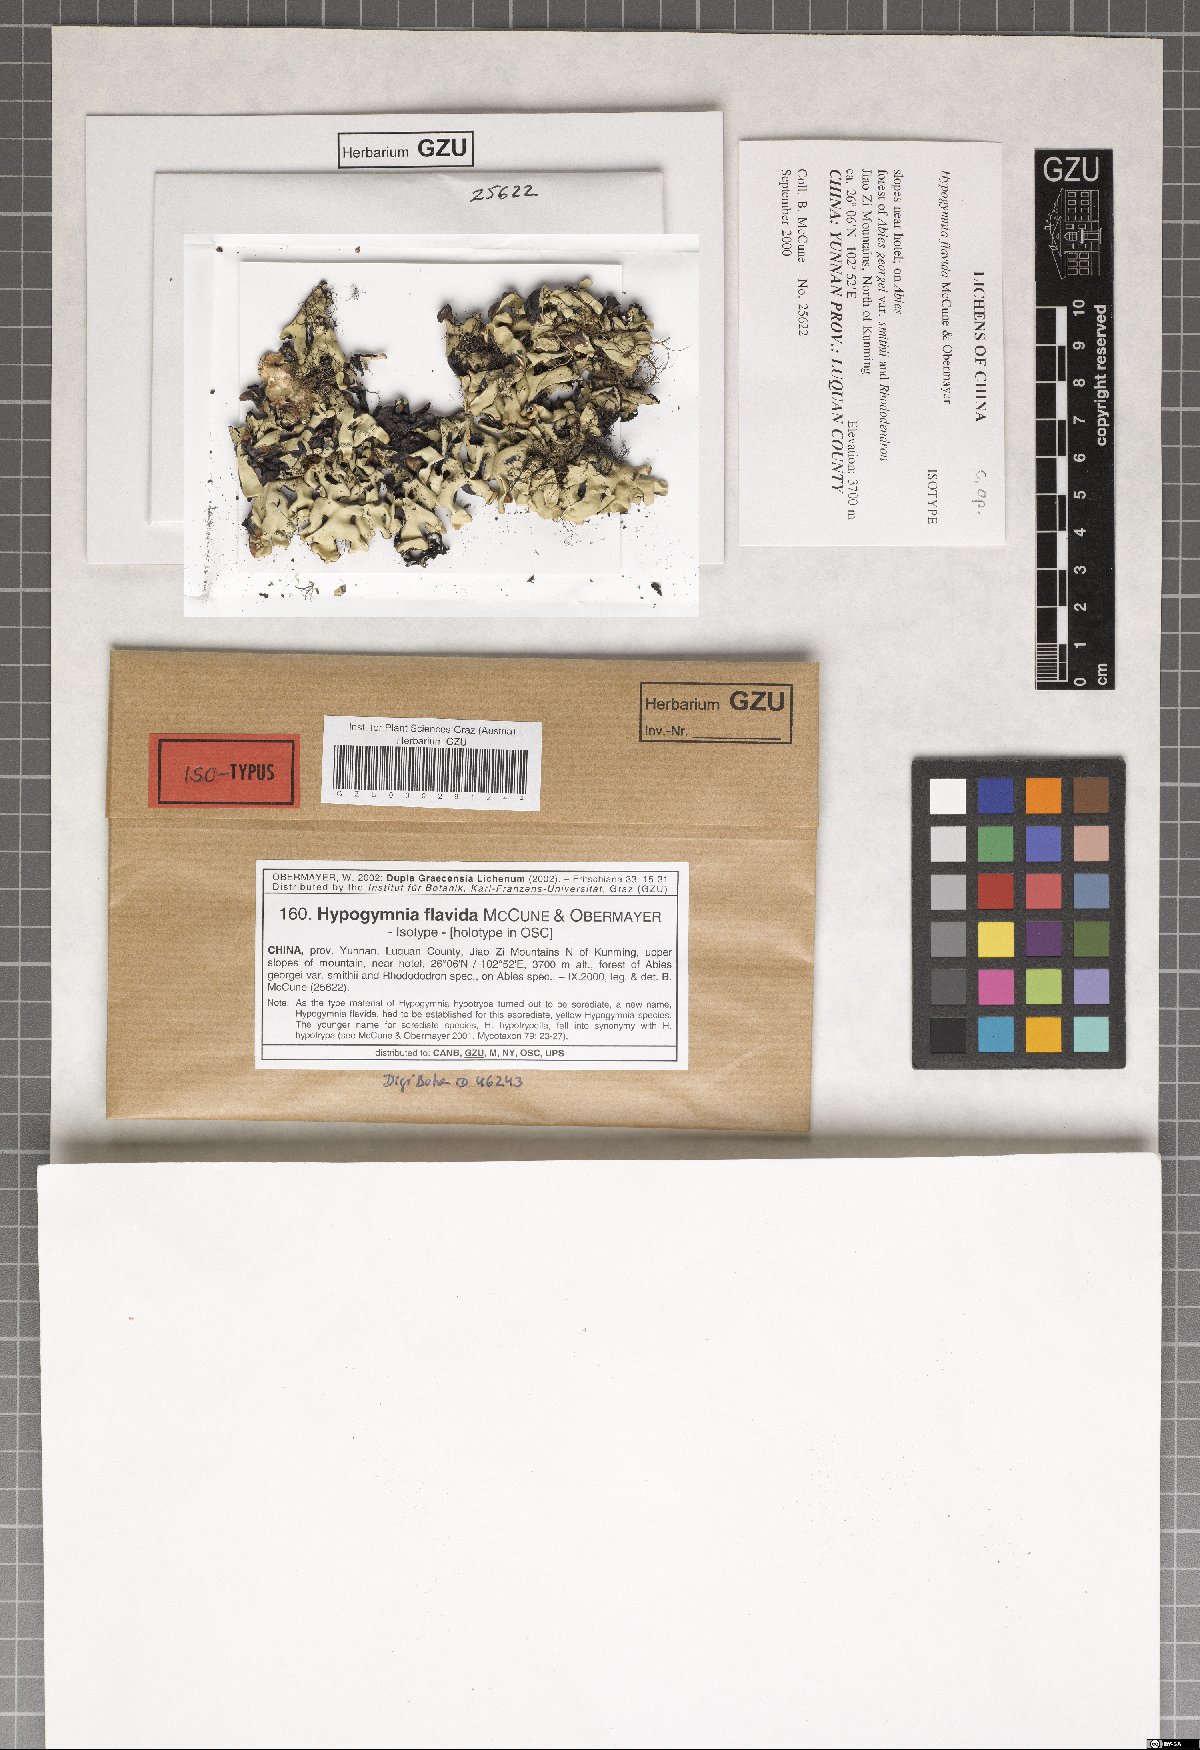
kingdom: Fungi
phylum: Ascomycota
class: Lecanoromycetes
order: Lecanorales
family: Parmeliaceae
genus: Hypogymnia
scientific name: Hypogymnia flavida
